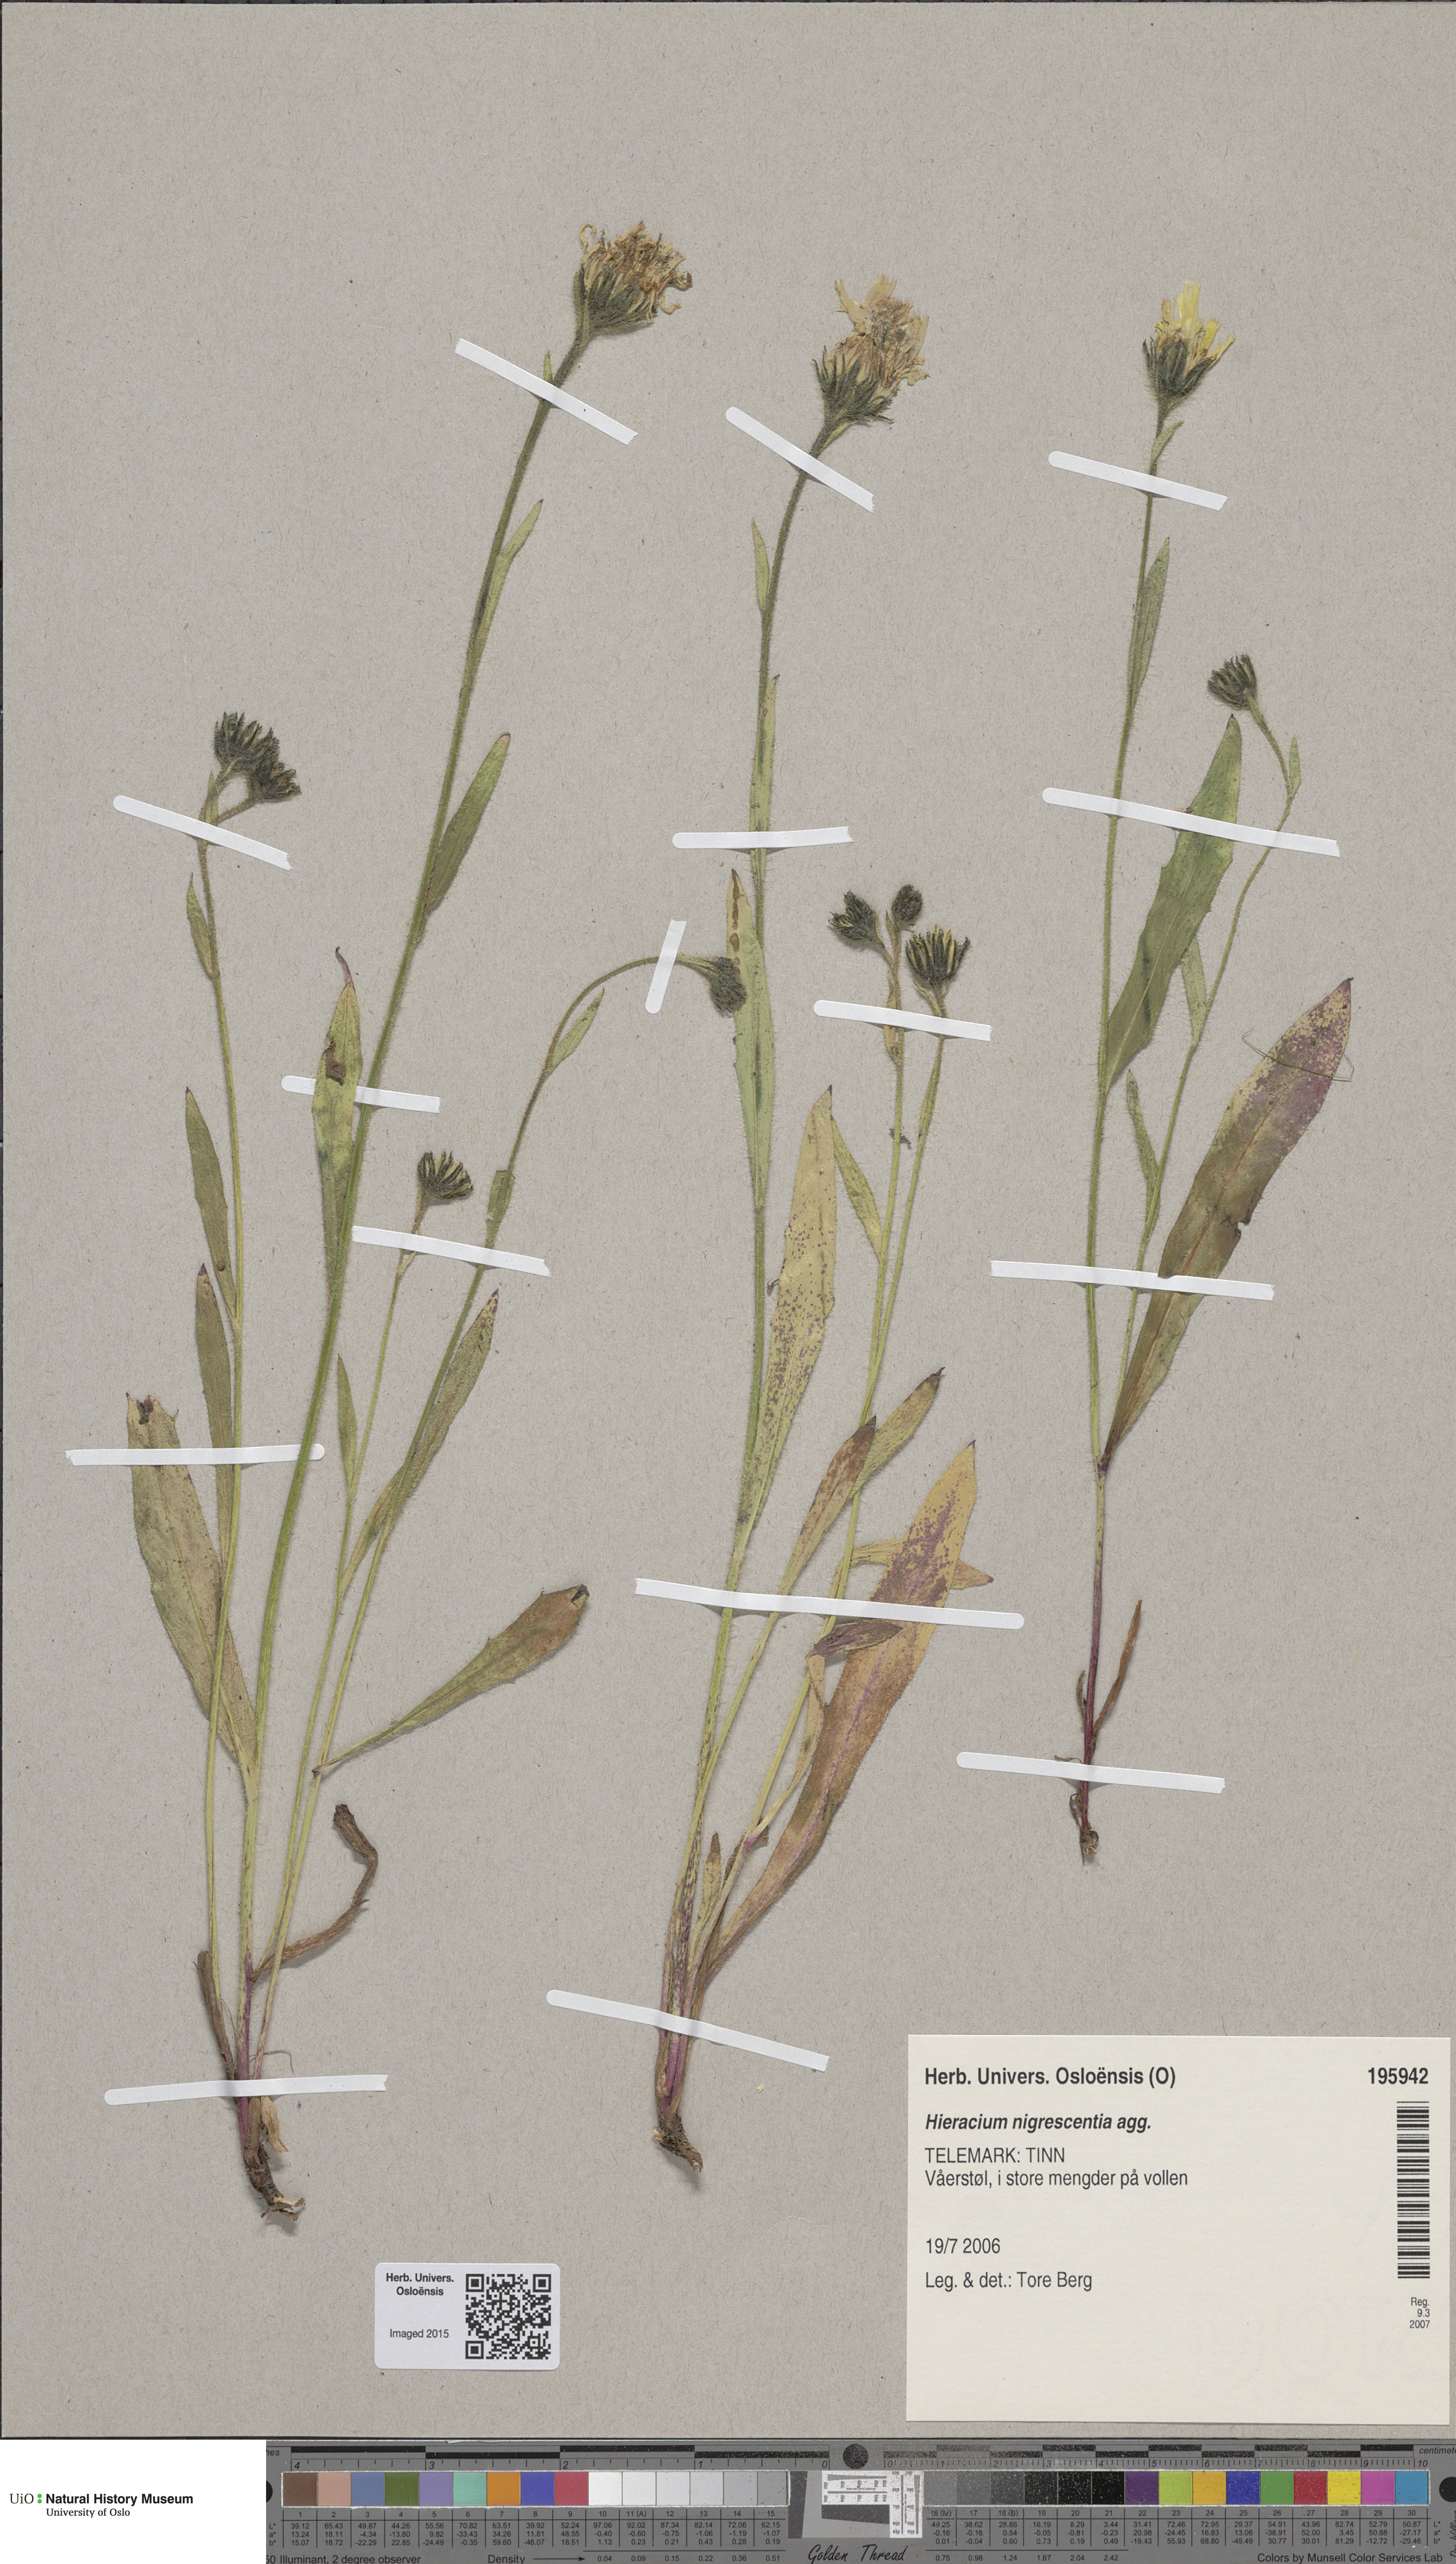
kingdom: Plantae
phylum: Tracheophyta
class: Magnoliopsida
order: Asterales
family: Asteraceae
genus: Hieracium
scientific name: Hieracium umbrosum
